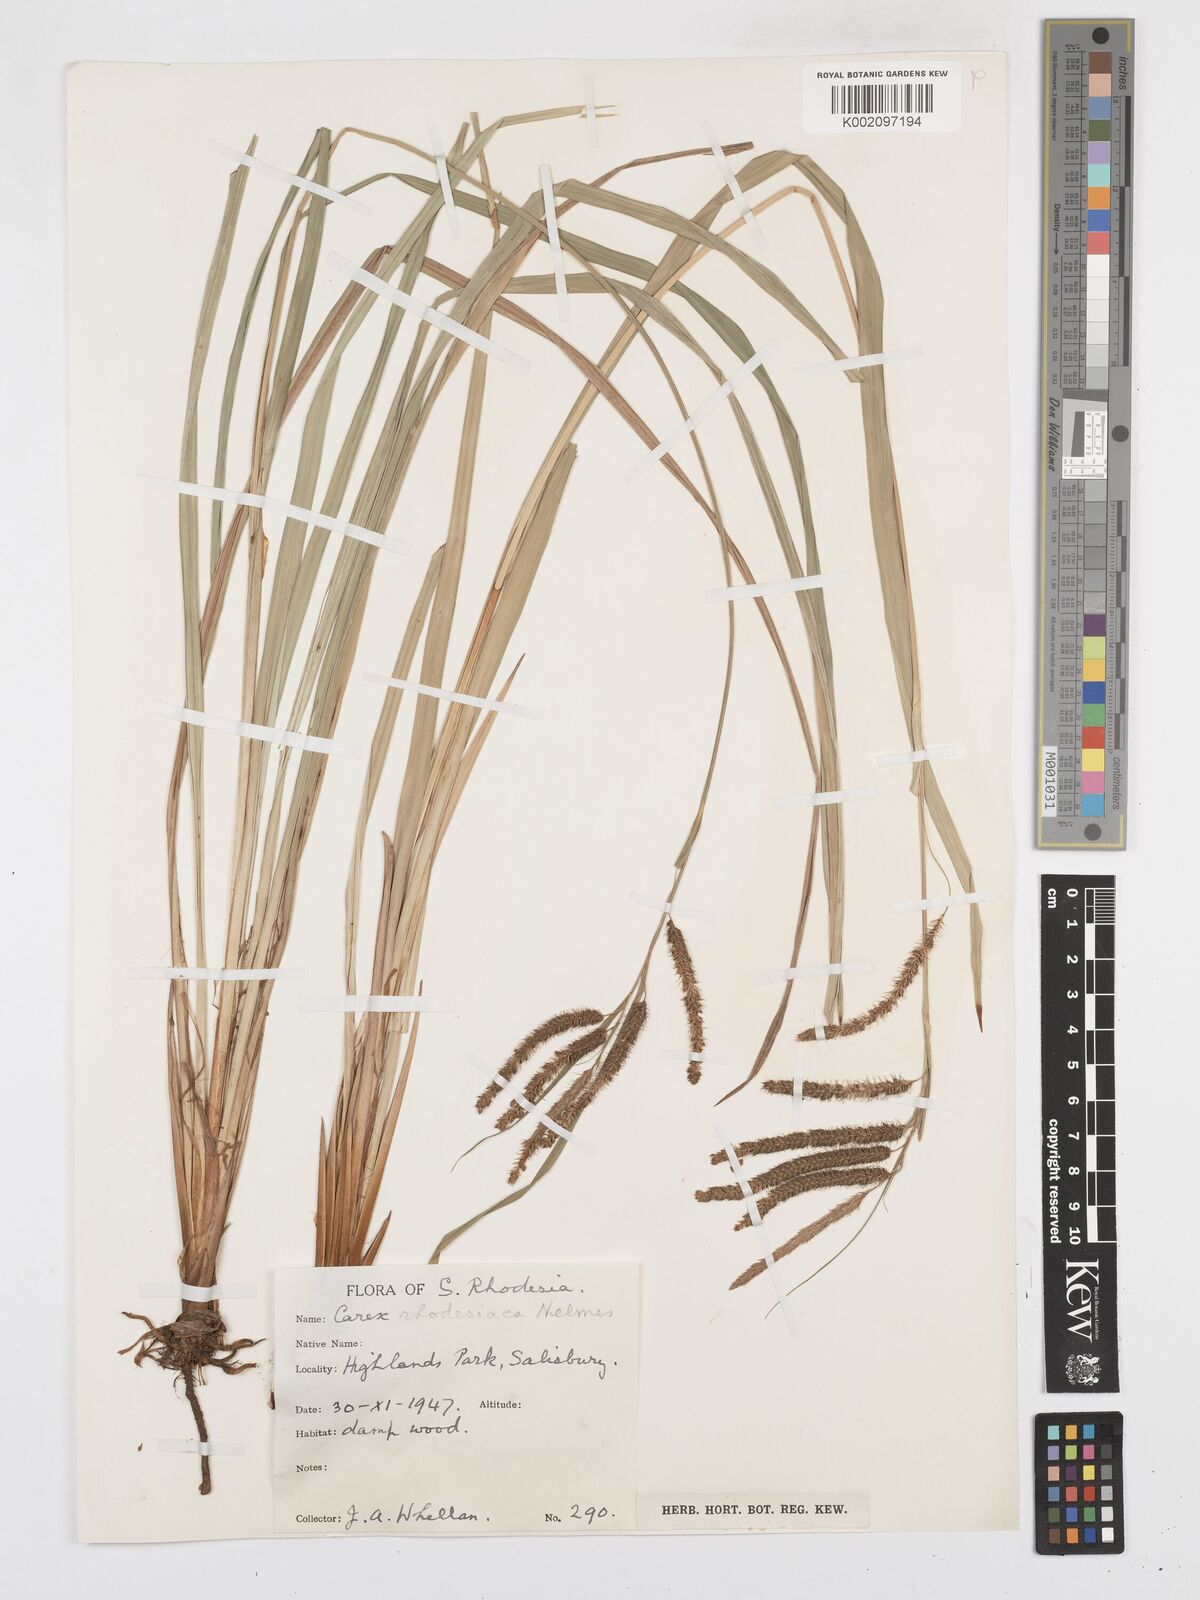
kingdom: Plantae
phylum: Tracheophyta
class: Liliopsida
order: Poales
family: Cyperaceae
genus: Carex
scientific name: Carex rhodesiaca
